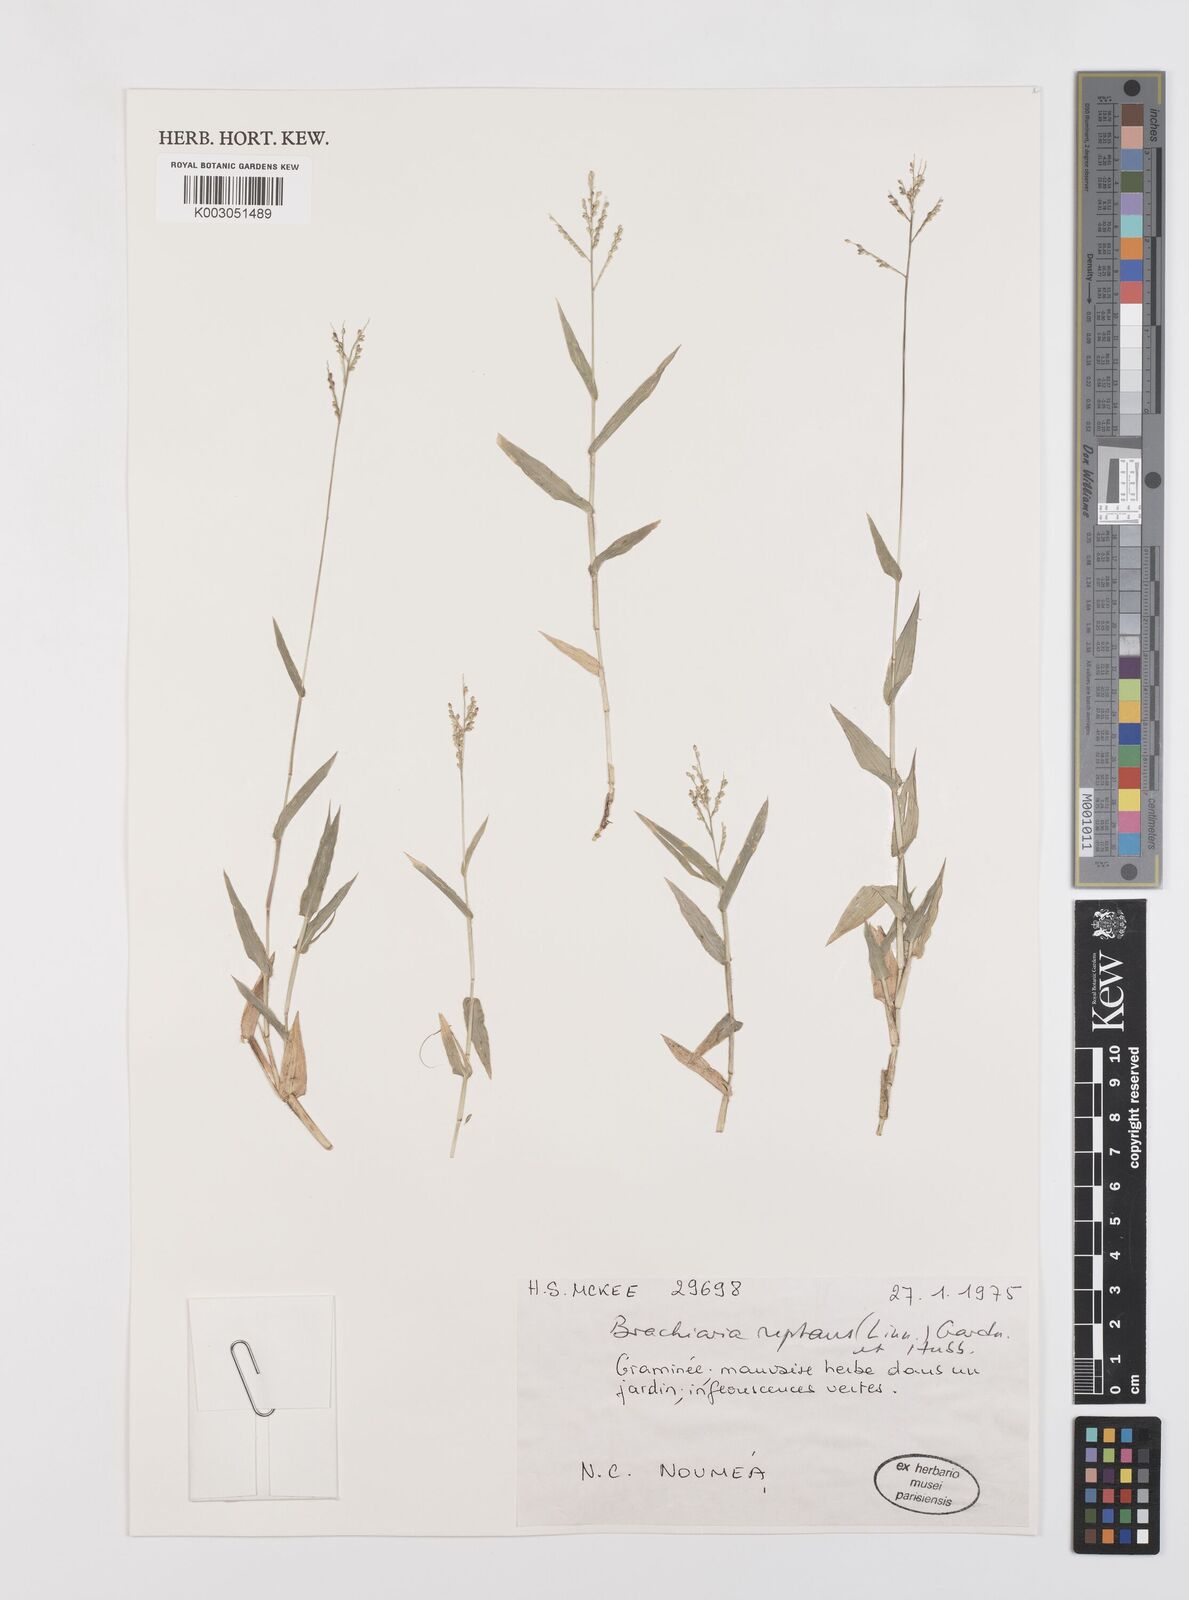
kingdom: Plantae
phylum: Tracheophyta
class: Liliopsida
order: Poales
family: Poaceae
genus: Urochloa
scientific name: Urochloa reptans
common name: Sprawling signalgrass
